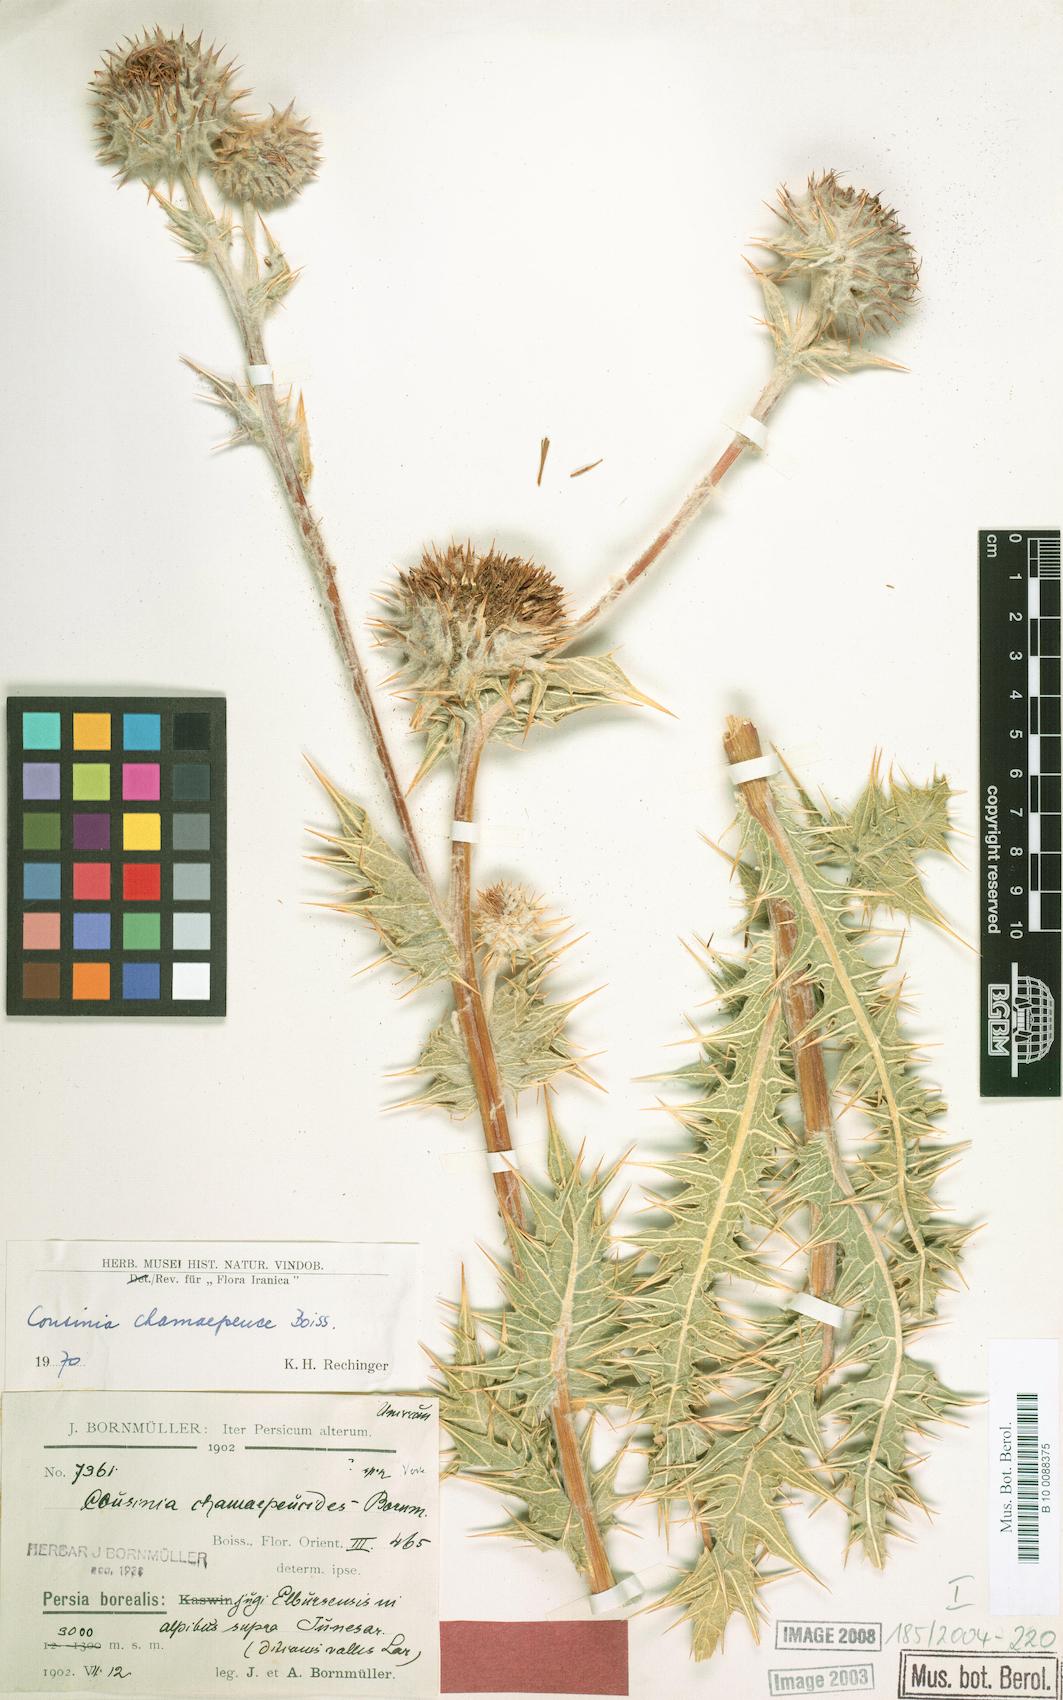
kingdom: Plantae
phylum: Tracheophyta
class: Magnoliopsida
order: Asterales
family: Asteraceae
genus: Cousinia
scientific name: Cousinia chamaepeuce
